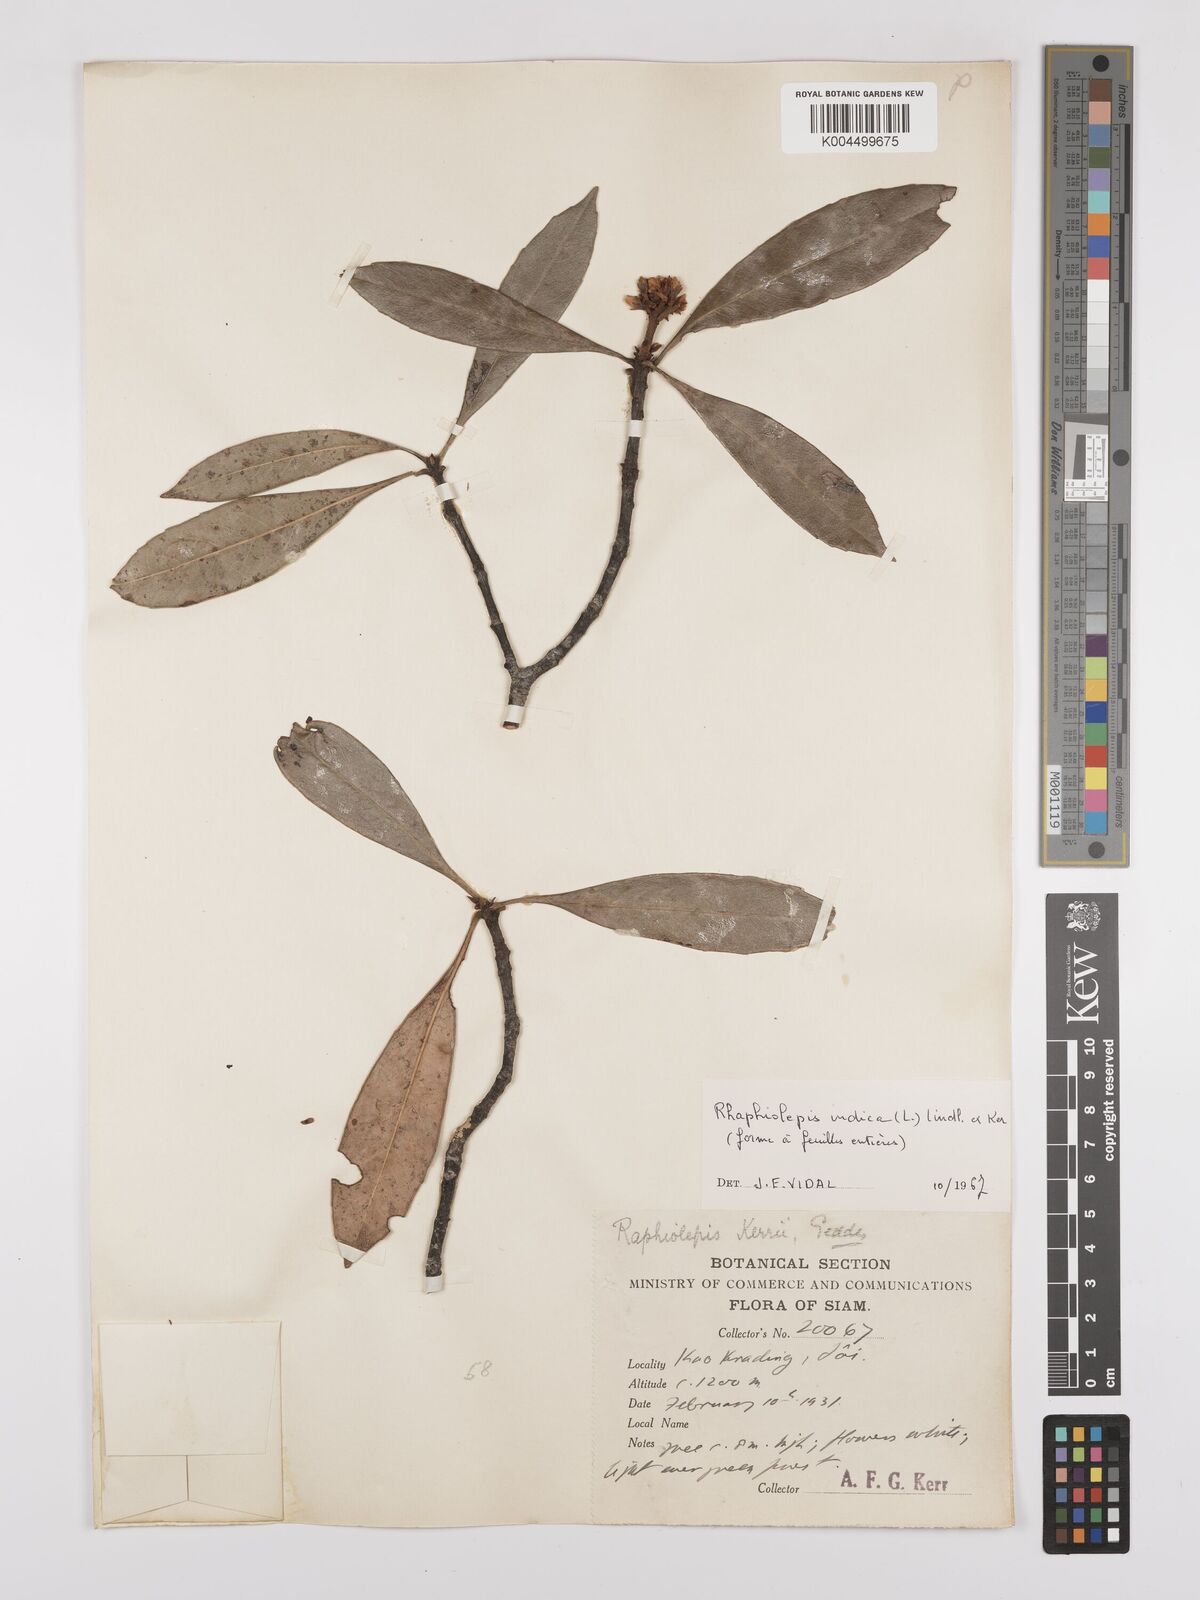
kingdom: Plantae
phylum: Tracheophyta
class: Magnoliopsida
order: Rosales
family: Rosaceae
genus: Rhaphiolepis
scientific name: Rhaphiolepis indica
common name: India-hawthorn
